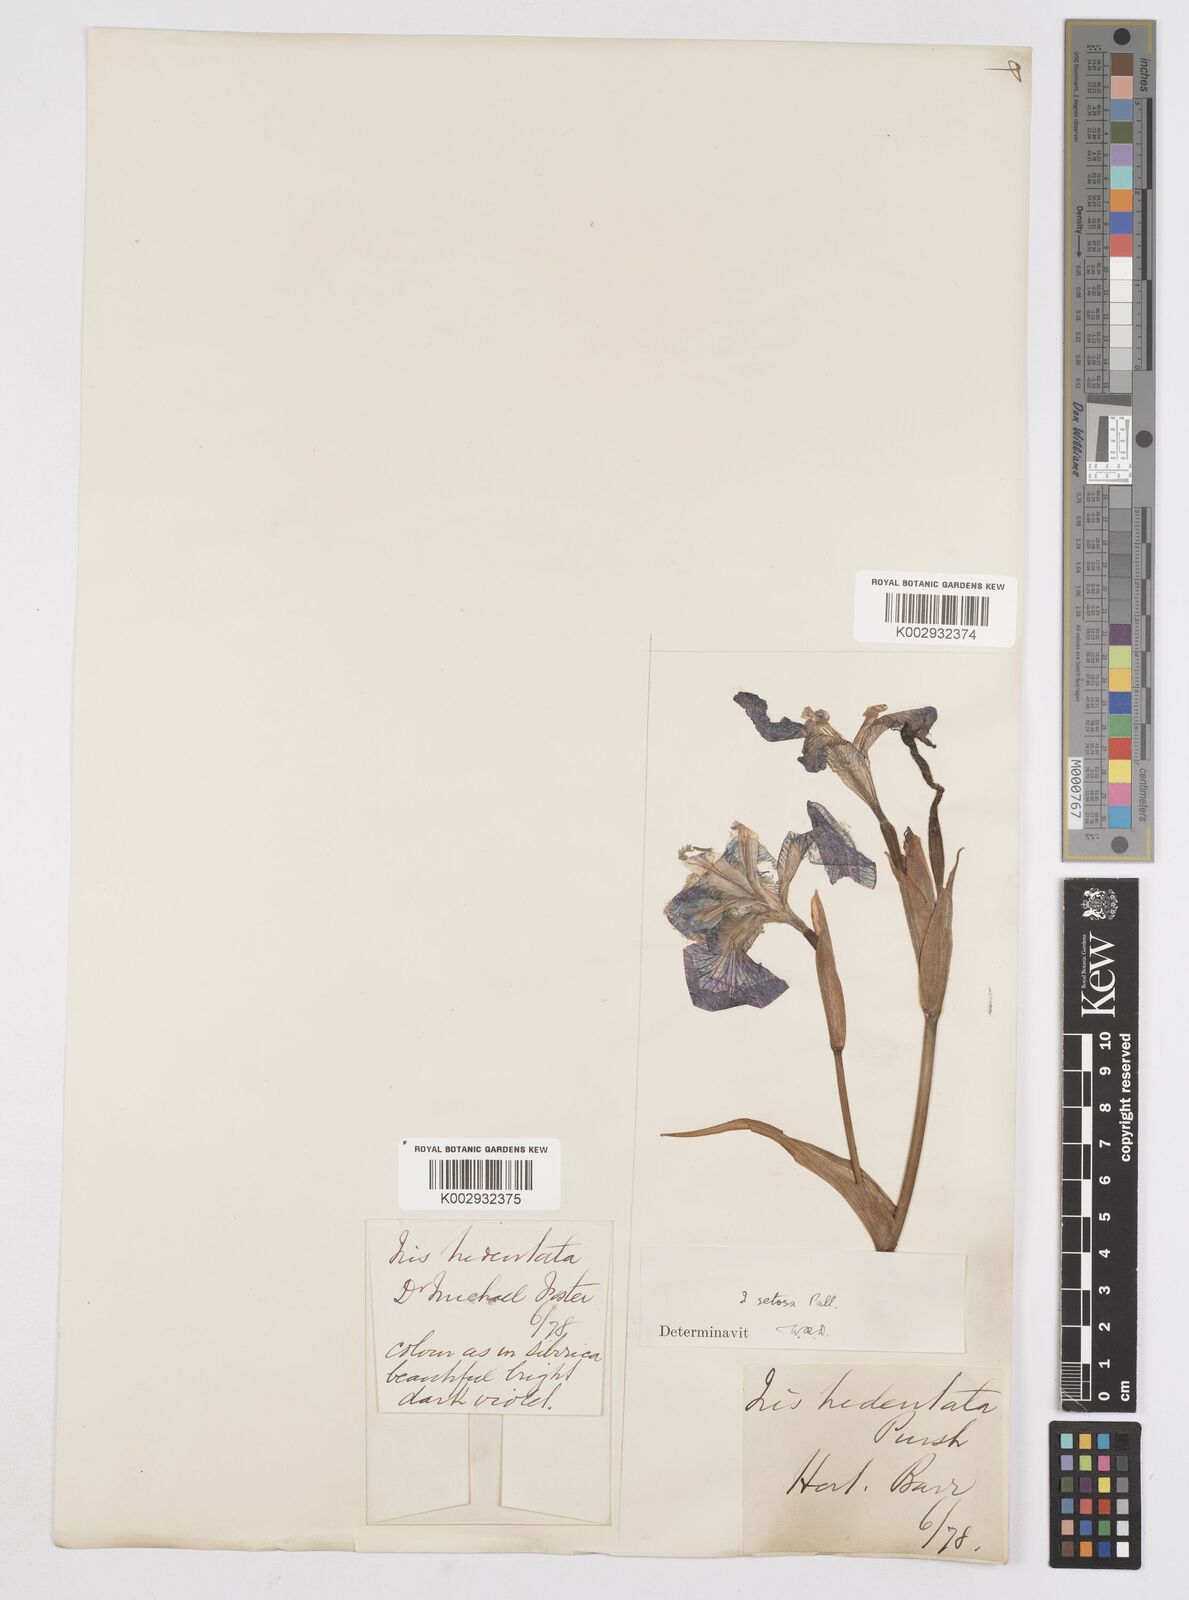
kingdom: Plantae
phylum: Tracheophyta
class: Liliopsida
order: Asparagales
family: Iridaceae
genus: Iris
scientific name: Iris setosa
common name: Arctic blue flag
